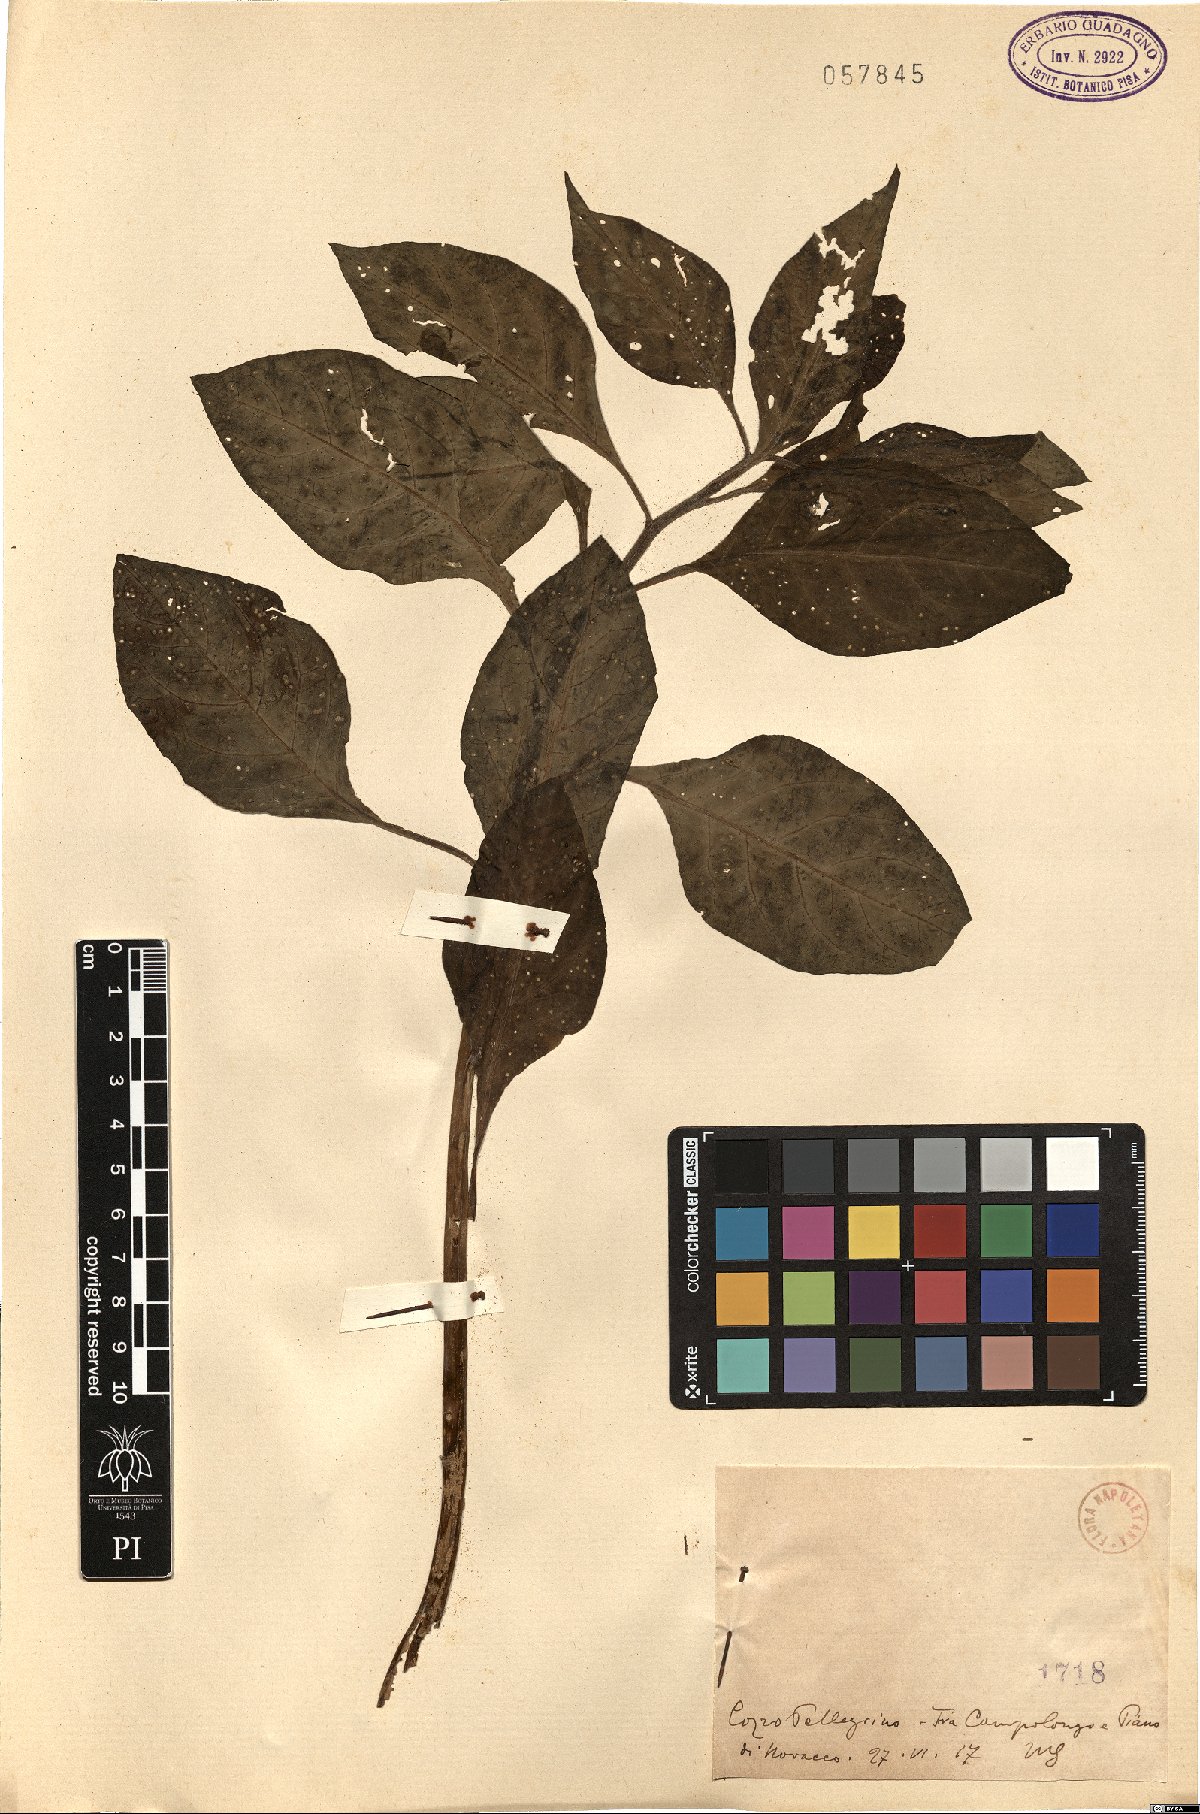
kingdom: Plantae
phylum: Tracheophyta
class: Magnoliopsida
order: Solanales
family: Solanaceae
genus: Atropa
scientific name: Atropa
